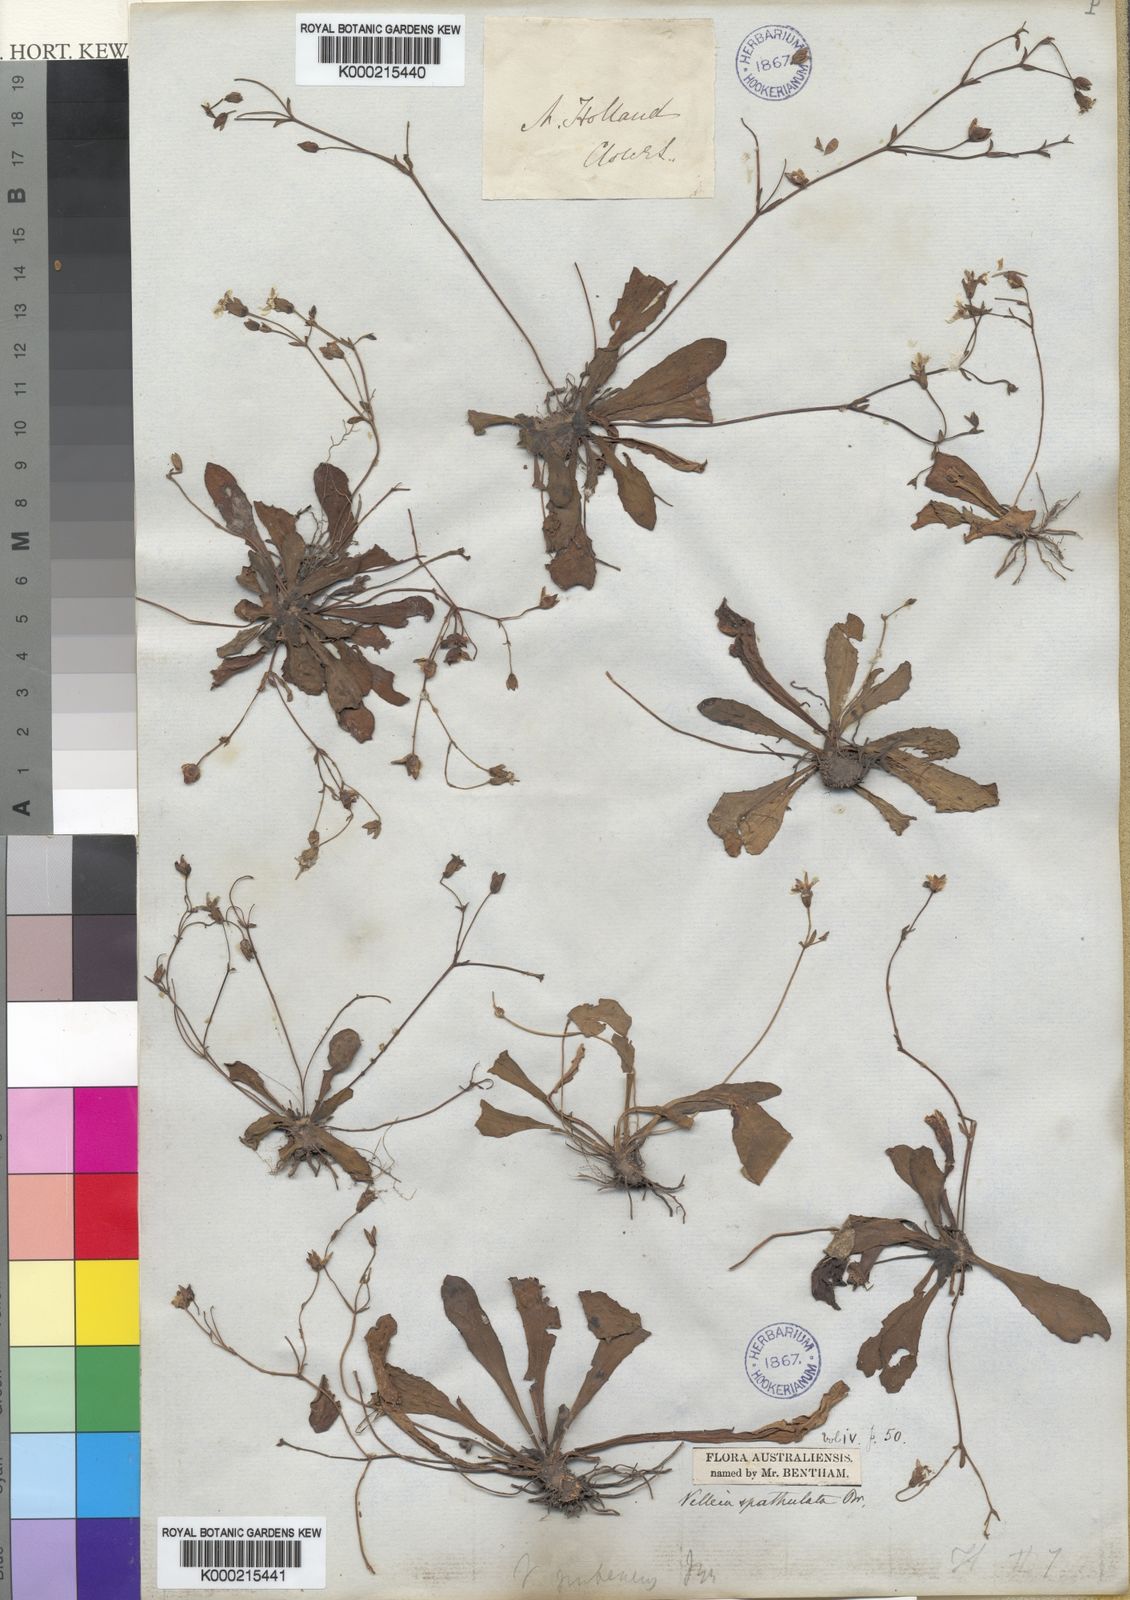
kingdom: Plantae
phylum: Tracheophyta
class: Magnoliopsida
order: Asterales
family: Goodeniaceae
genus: Goodenia
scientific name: Goodenia mystrophylla
